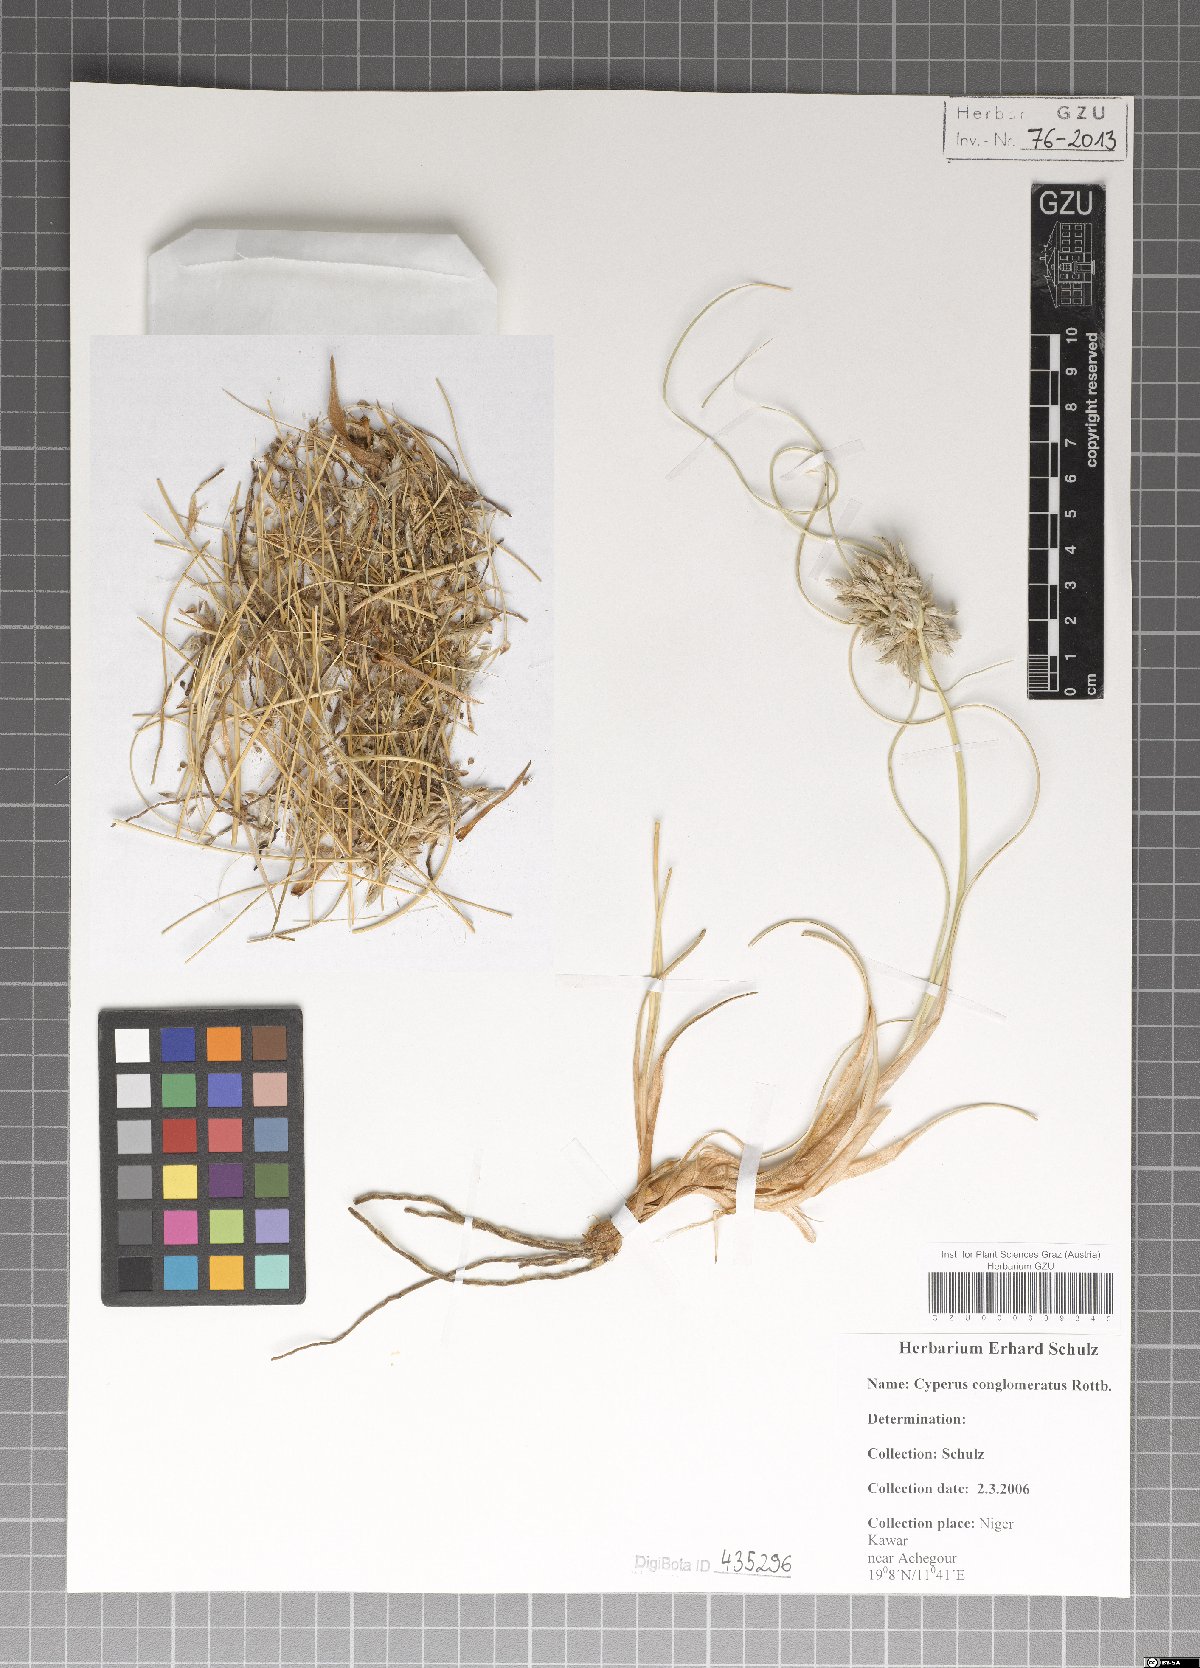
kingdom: Plantae
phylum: Tracheophyta
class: Liliopsida
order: Poales
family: Cyperaceae
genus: Cyperus
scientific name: Cyperus conglomeratus
